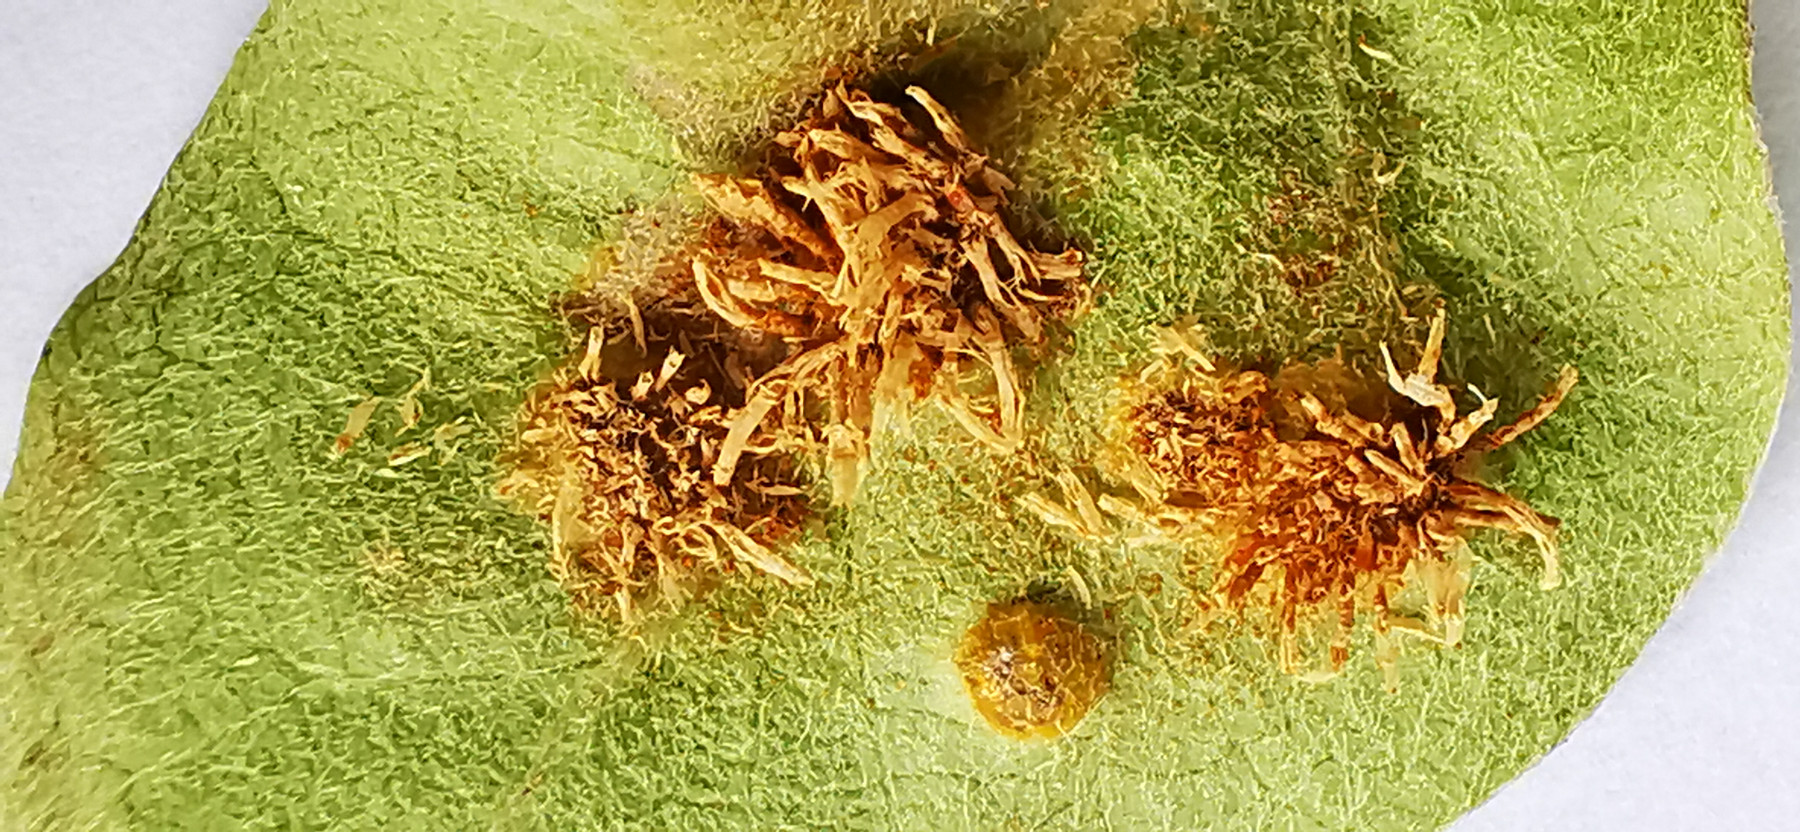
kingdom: Fungi
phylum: Basidiomycota
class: Pucciniomycetes
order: Pucciniales
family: Gymnosporangiaceae
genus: Gymnosporangium
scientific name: Gymnosporangium
